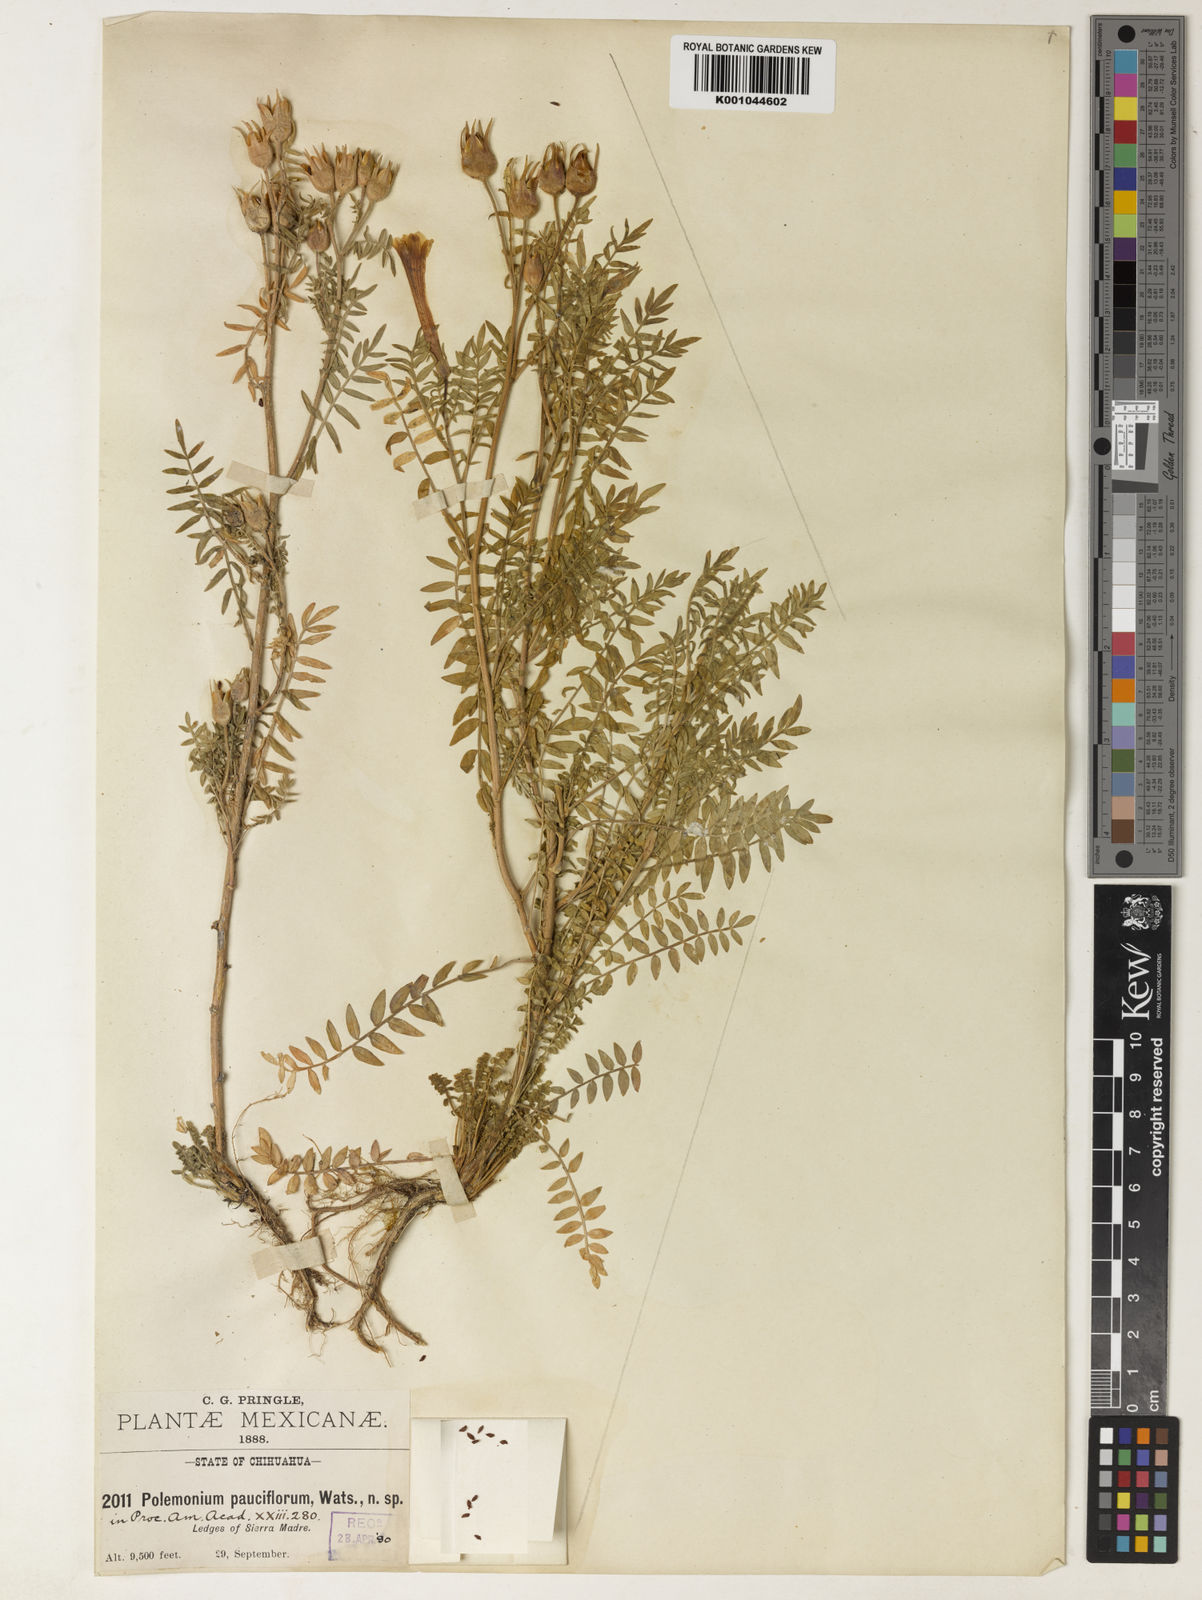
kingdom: Plantae
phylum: Tracheophyta
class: Magnoliopsida
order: Ericales
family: Polemoniaceae
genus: Polemonium
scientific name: Polemonium pauciflorum
